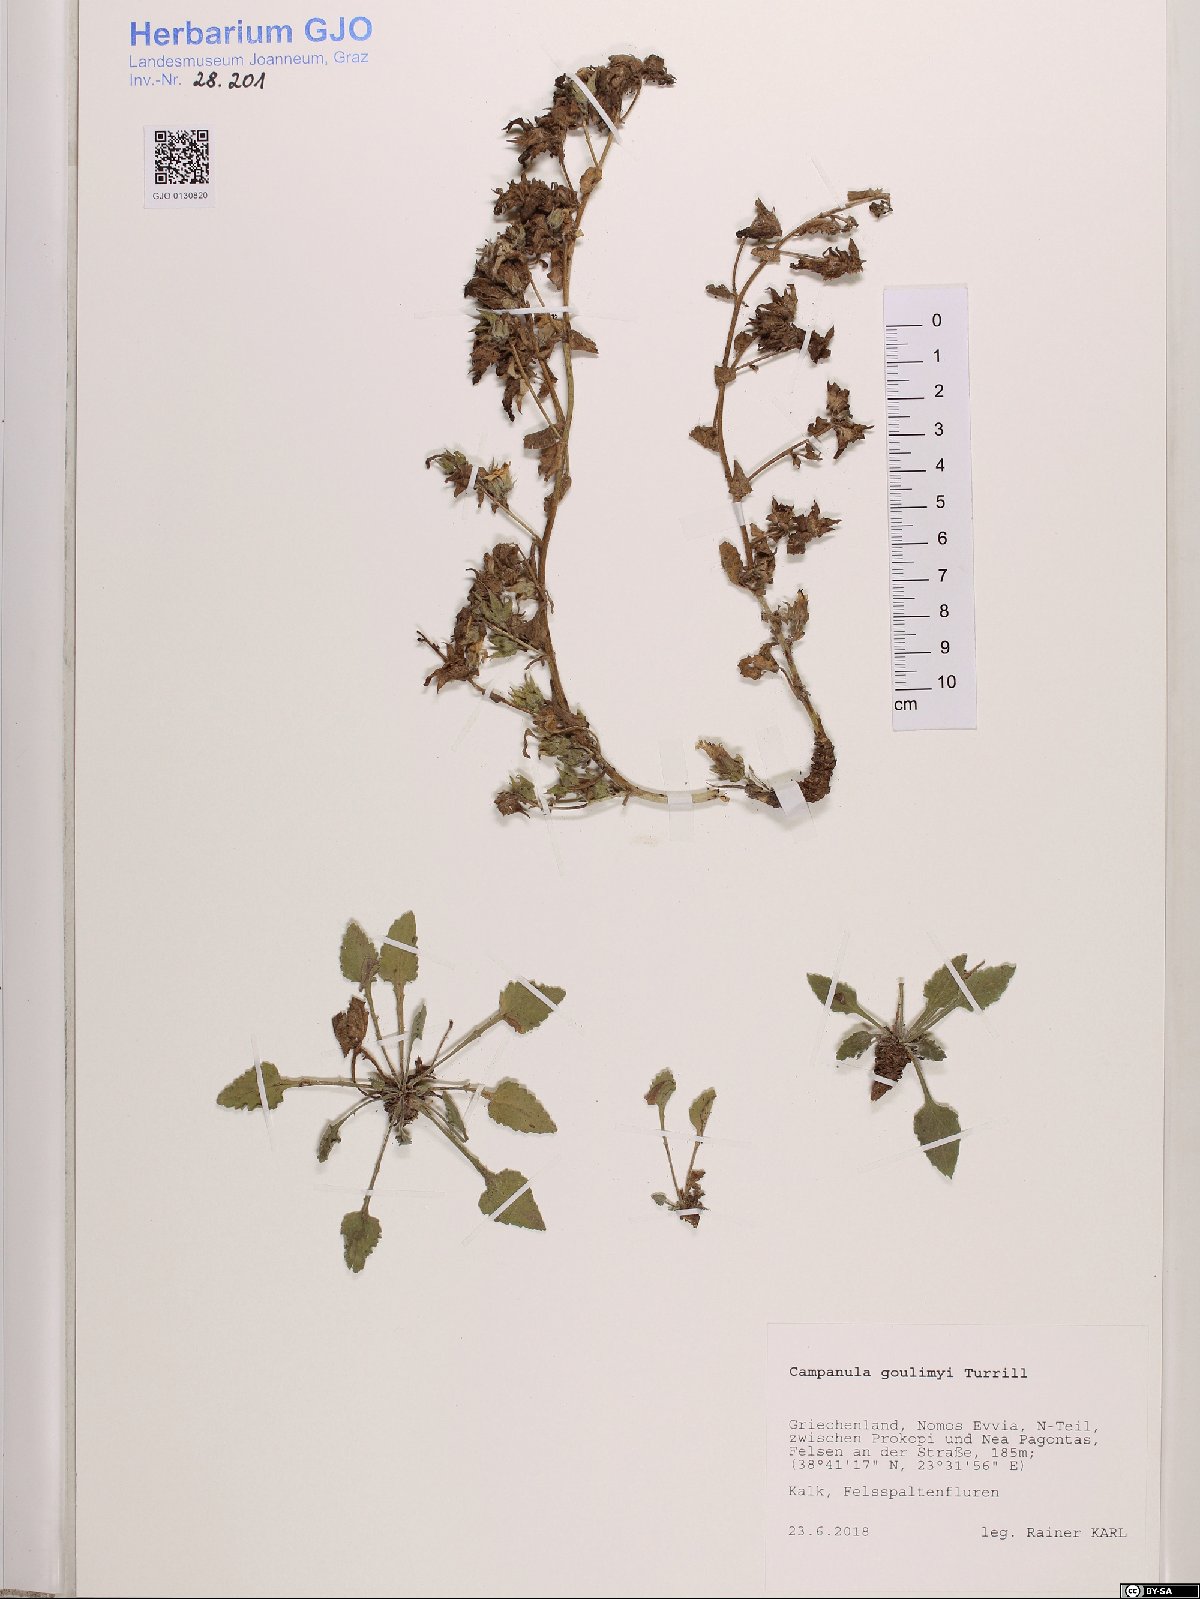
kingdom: Plantae
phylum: Tracheophyta
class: Magnoliopsida
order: Asterales
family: Campanulaceae
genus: Campanula
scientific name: Campanula goulimyi
